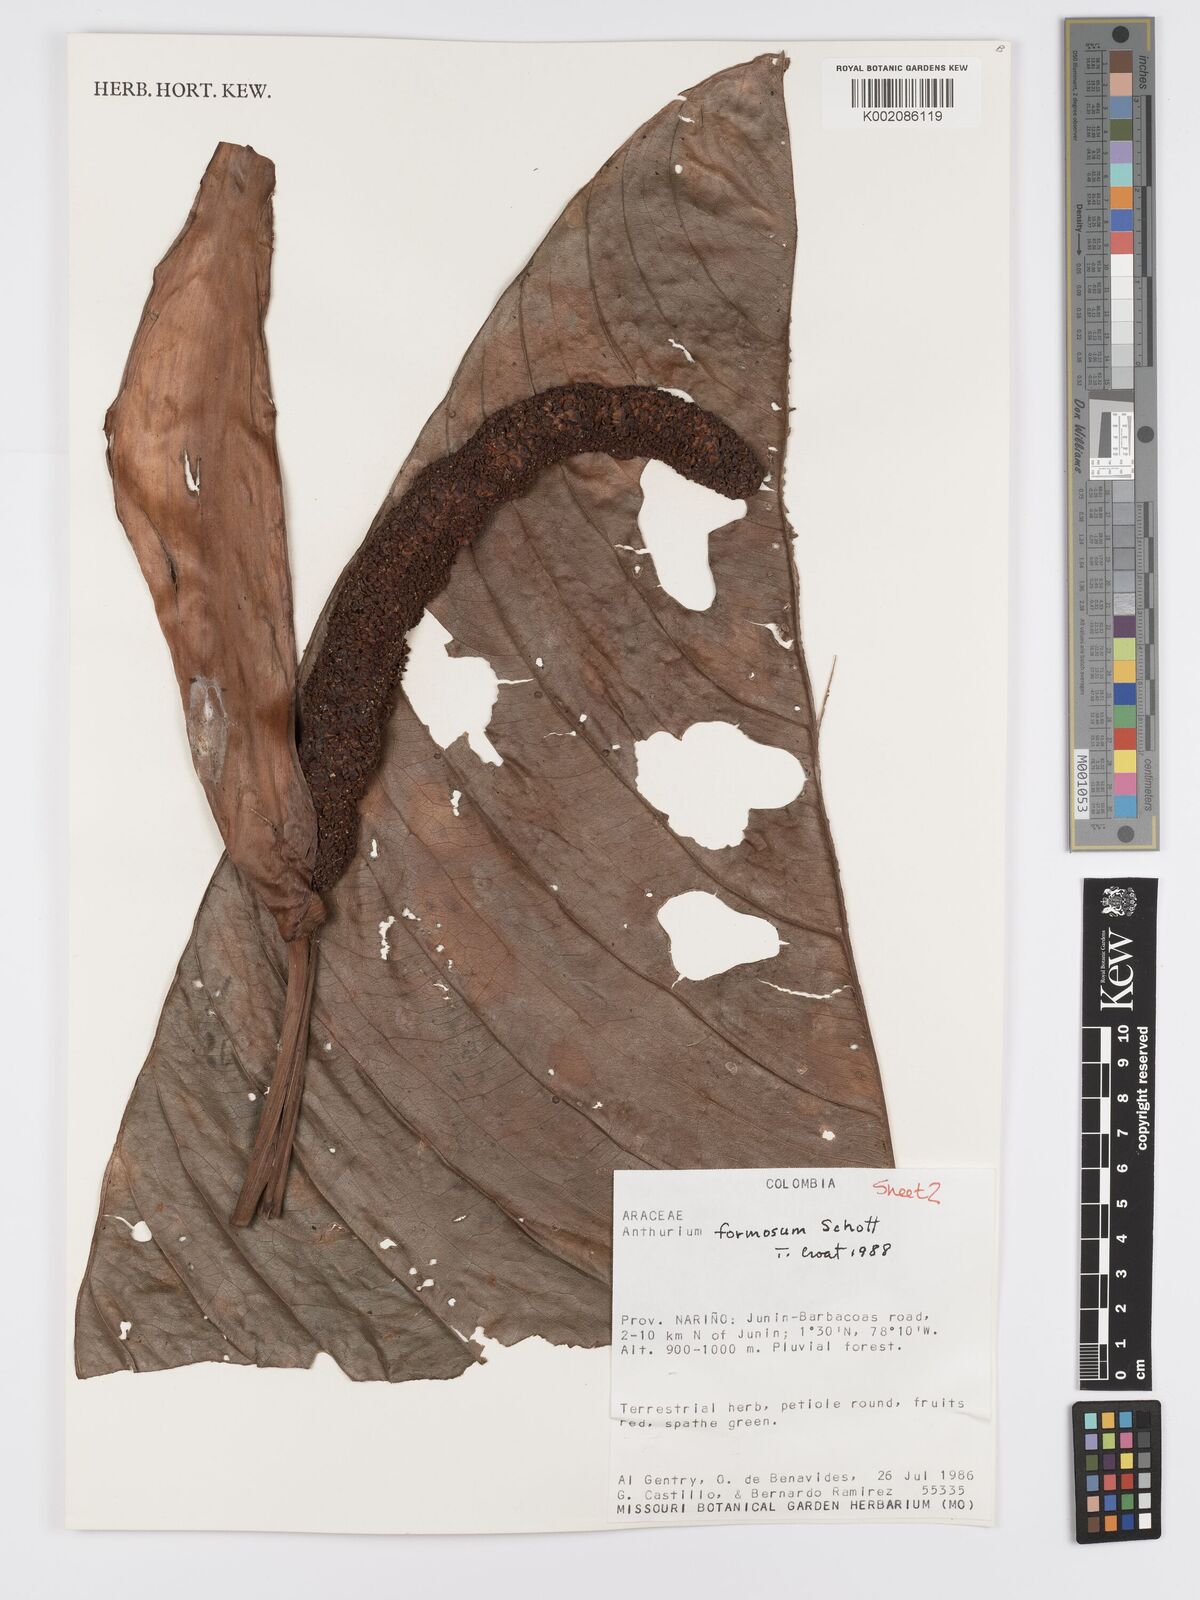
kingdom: Plantae
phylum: Tracheophyta
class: Liliopsida
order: Alismatales
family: Araceae
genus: Anthurium
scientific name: Anthurium formosum
